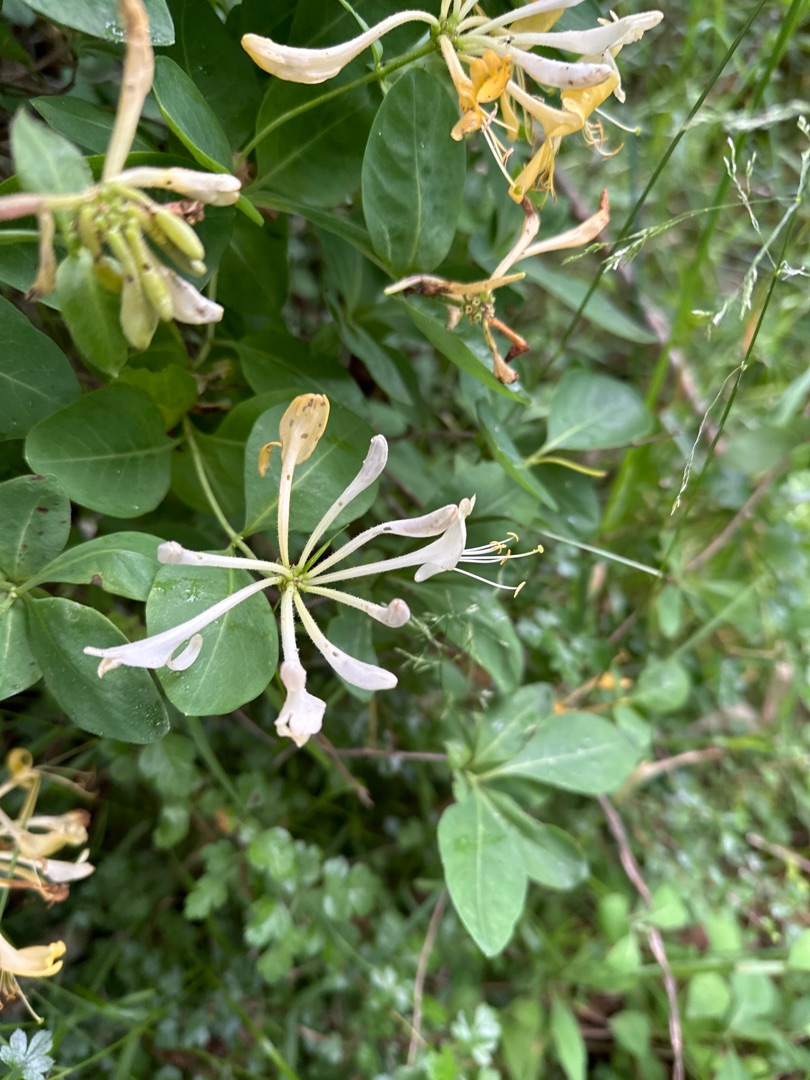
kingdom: Plantae
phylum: Tracheophyta
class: Magnoliopsida
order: Dipsacales
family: Caprifoliaceae
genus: Lonicera
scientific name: Lonicera periclymenum
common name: Almindelig gedeblad
